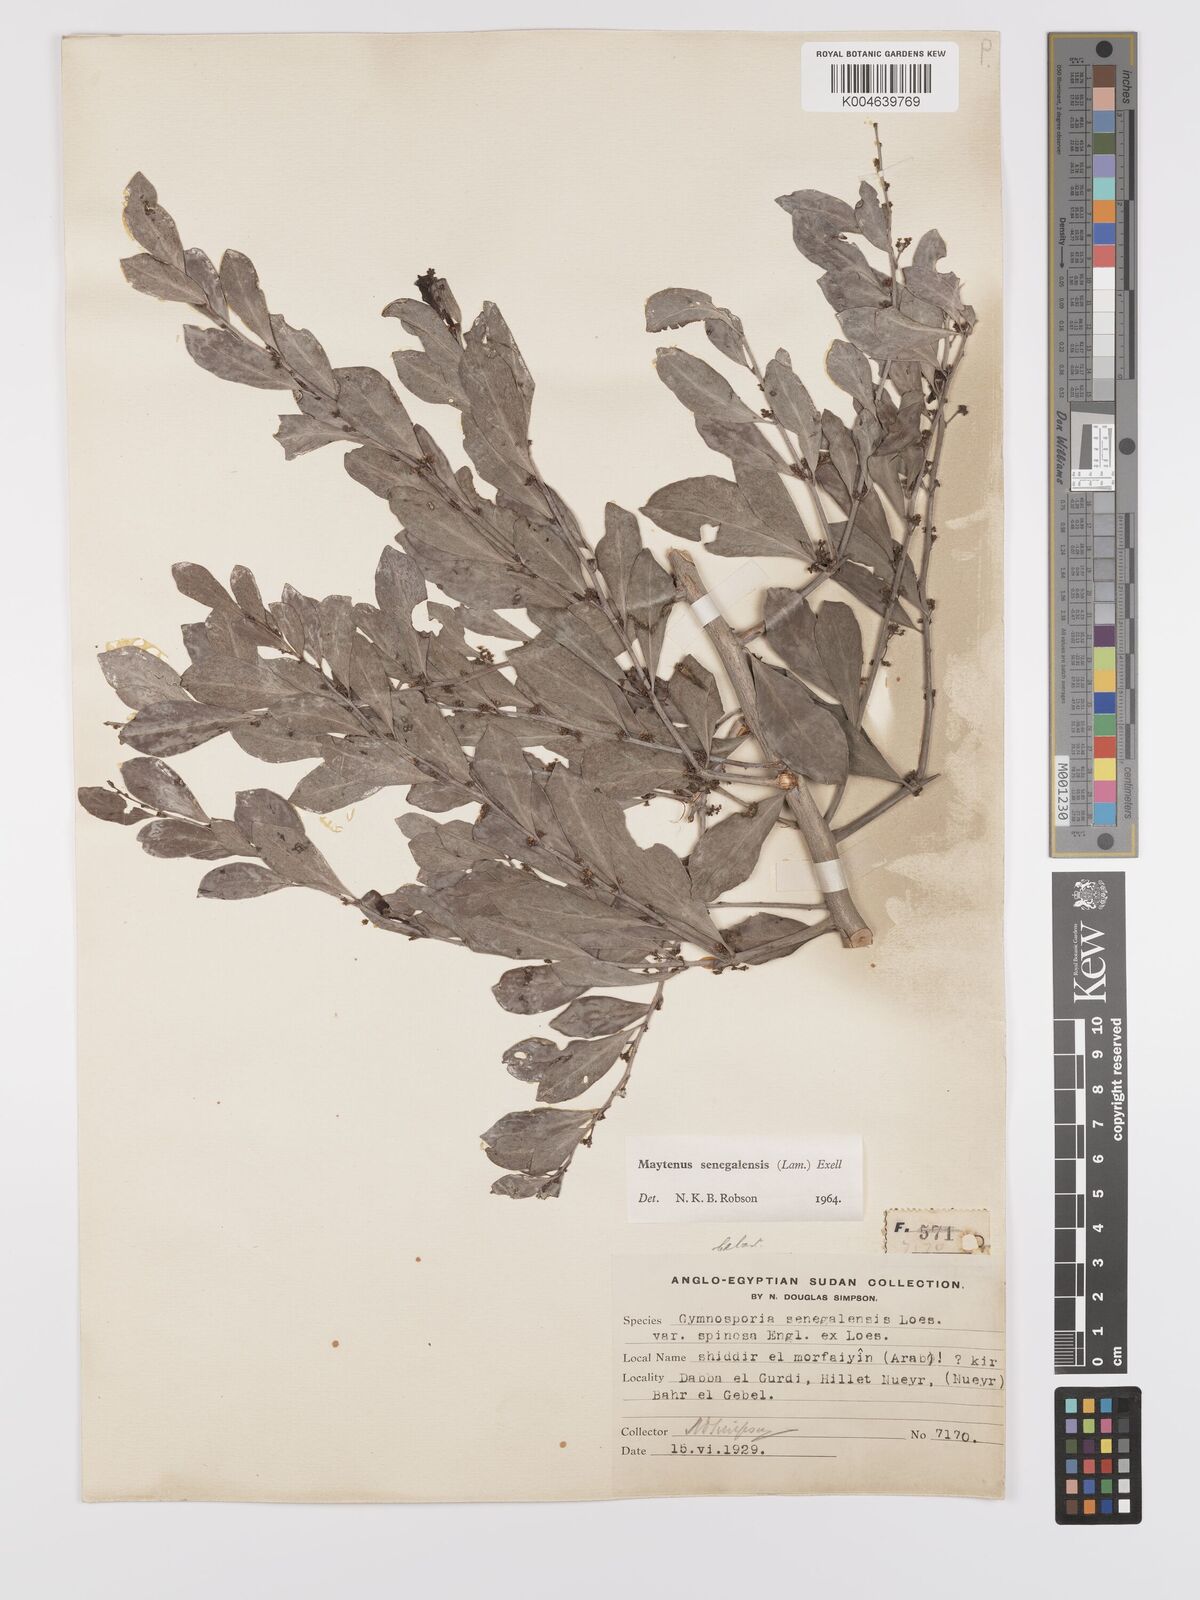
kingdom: Plantae
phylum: Tracheophyta
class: Magnoliopsida
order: Celastrales
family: Celastraceae
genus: Gymnosporia
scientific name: Gymnosporia senegalensis
